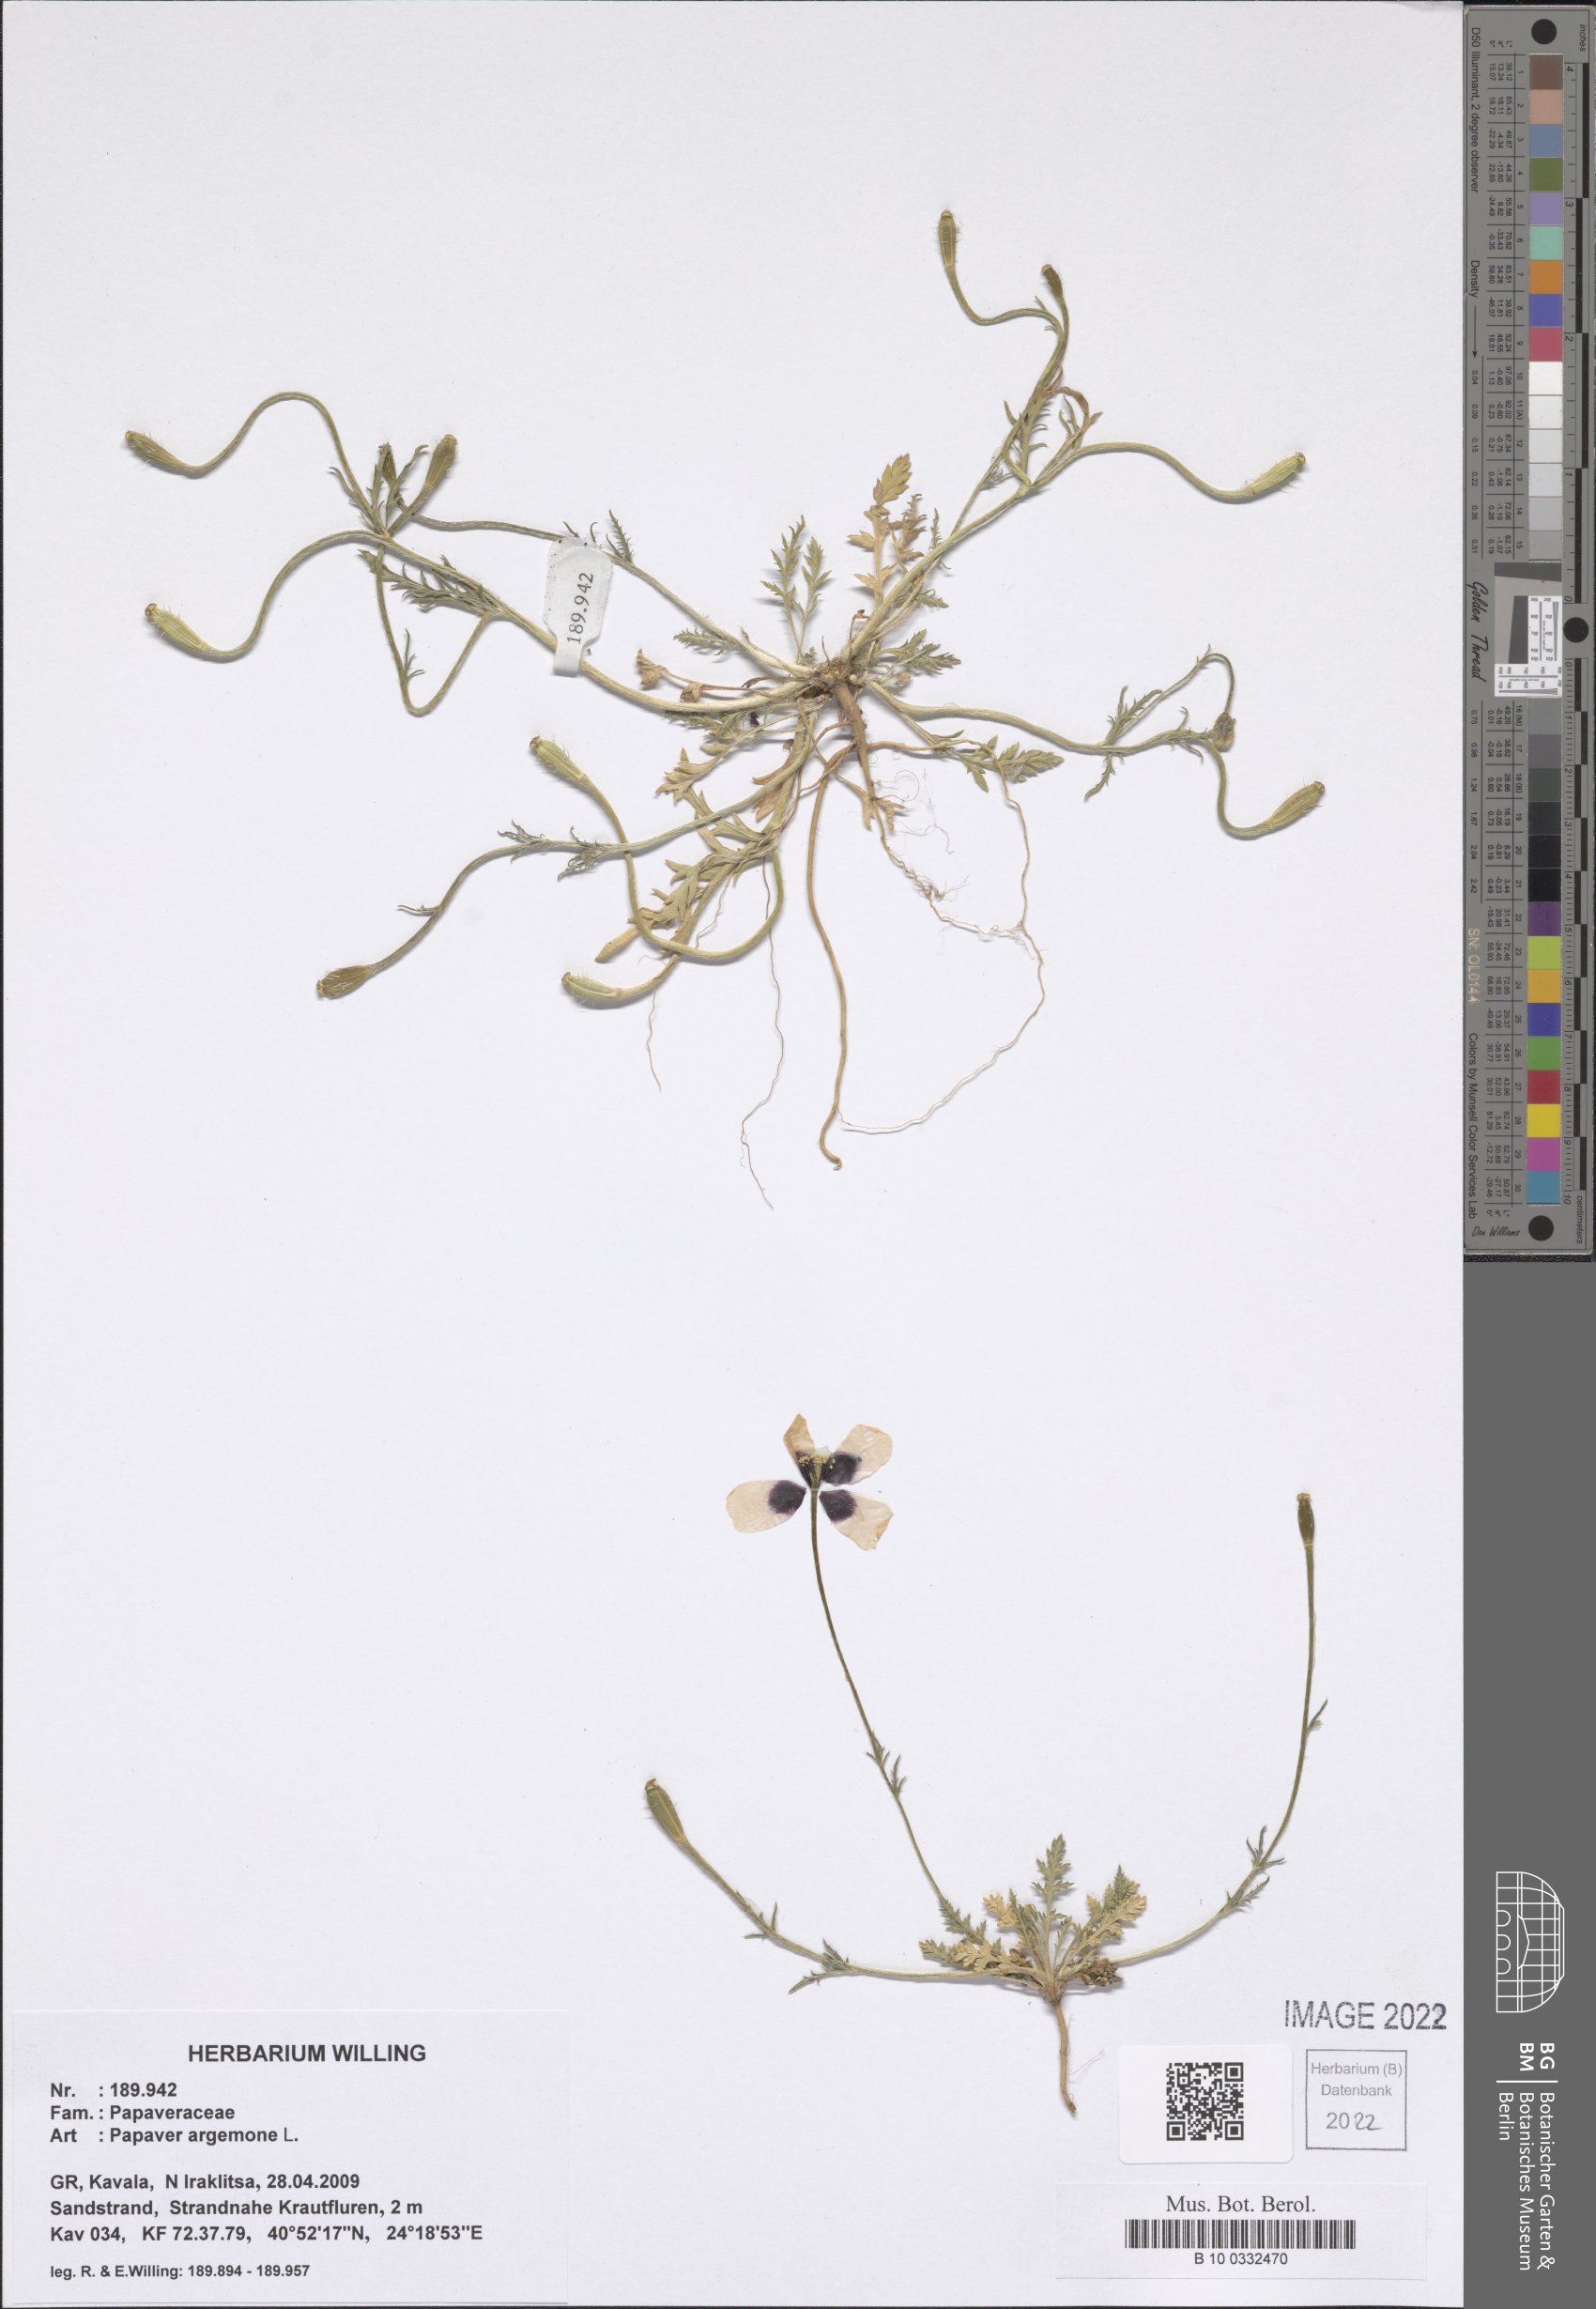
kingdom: Plantae
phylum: Tracheophyta
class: Magnoliopsida
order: Ranunculales
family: Papaveraceae
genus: Roemeria
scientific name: Roemeria argemone
